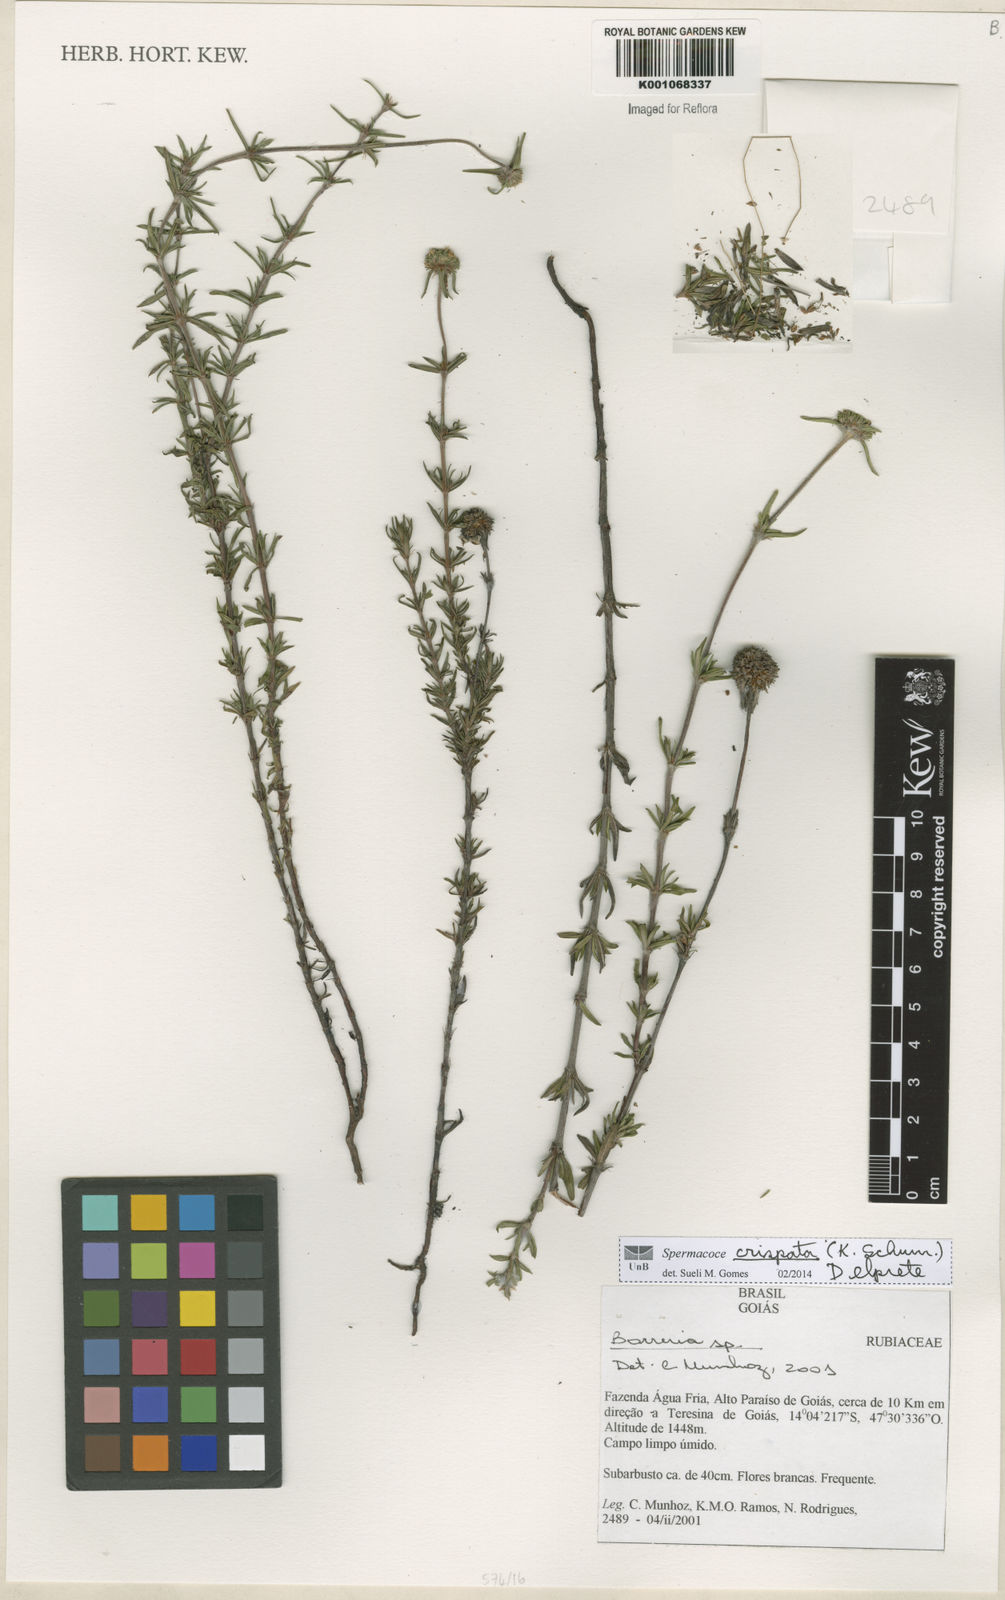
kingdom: Plantae
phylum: Tracheophyta
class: Magnoliopsida
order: Gentianales
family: Rubiaceae
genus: Spermacoce
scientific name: Spermacoce crispata
